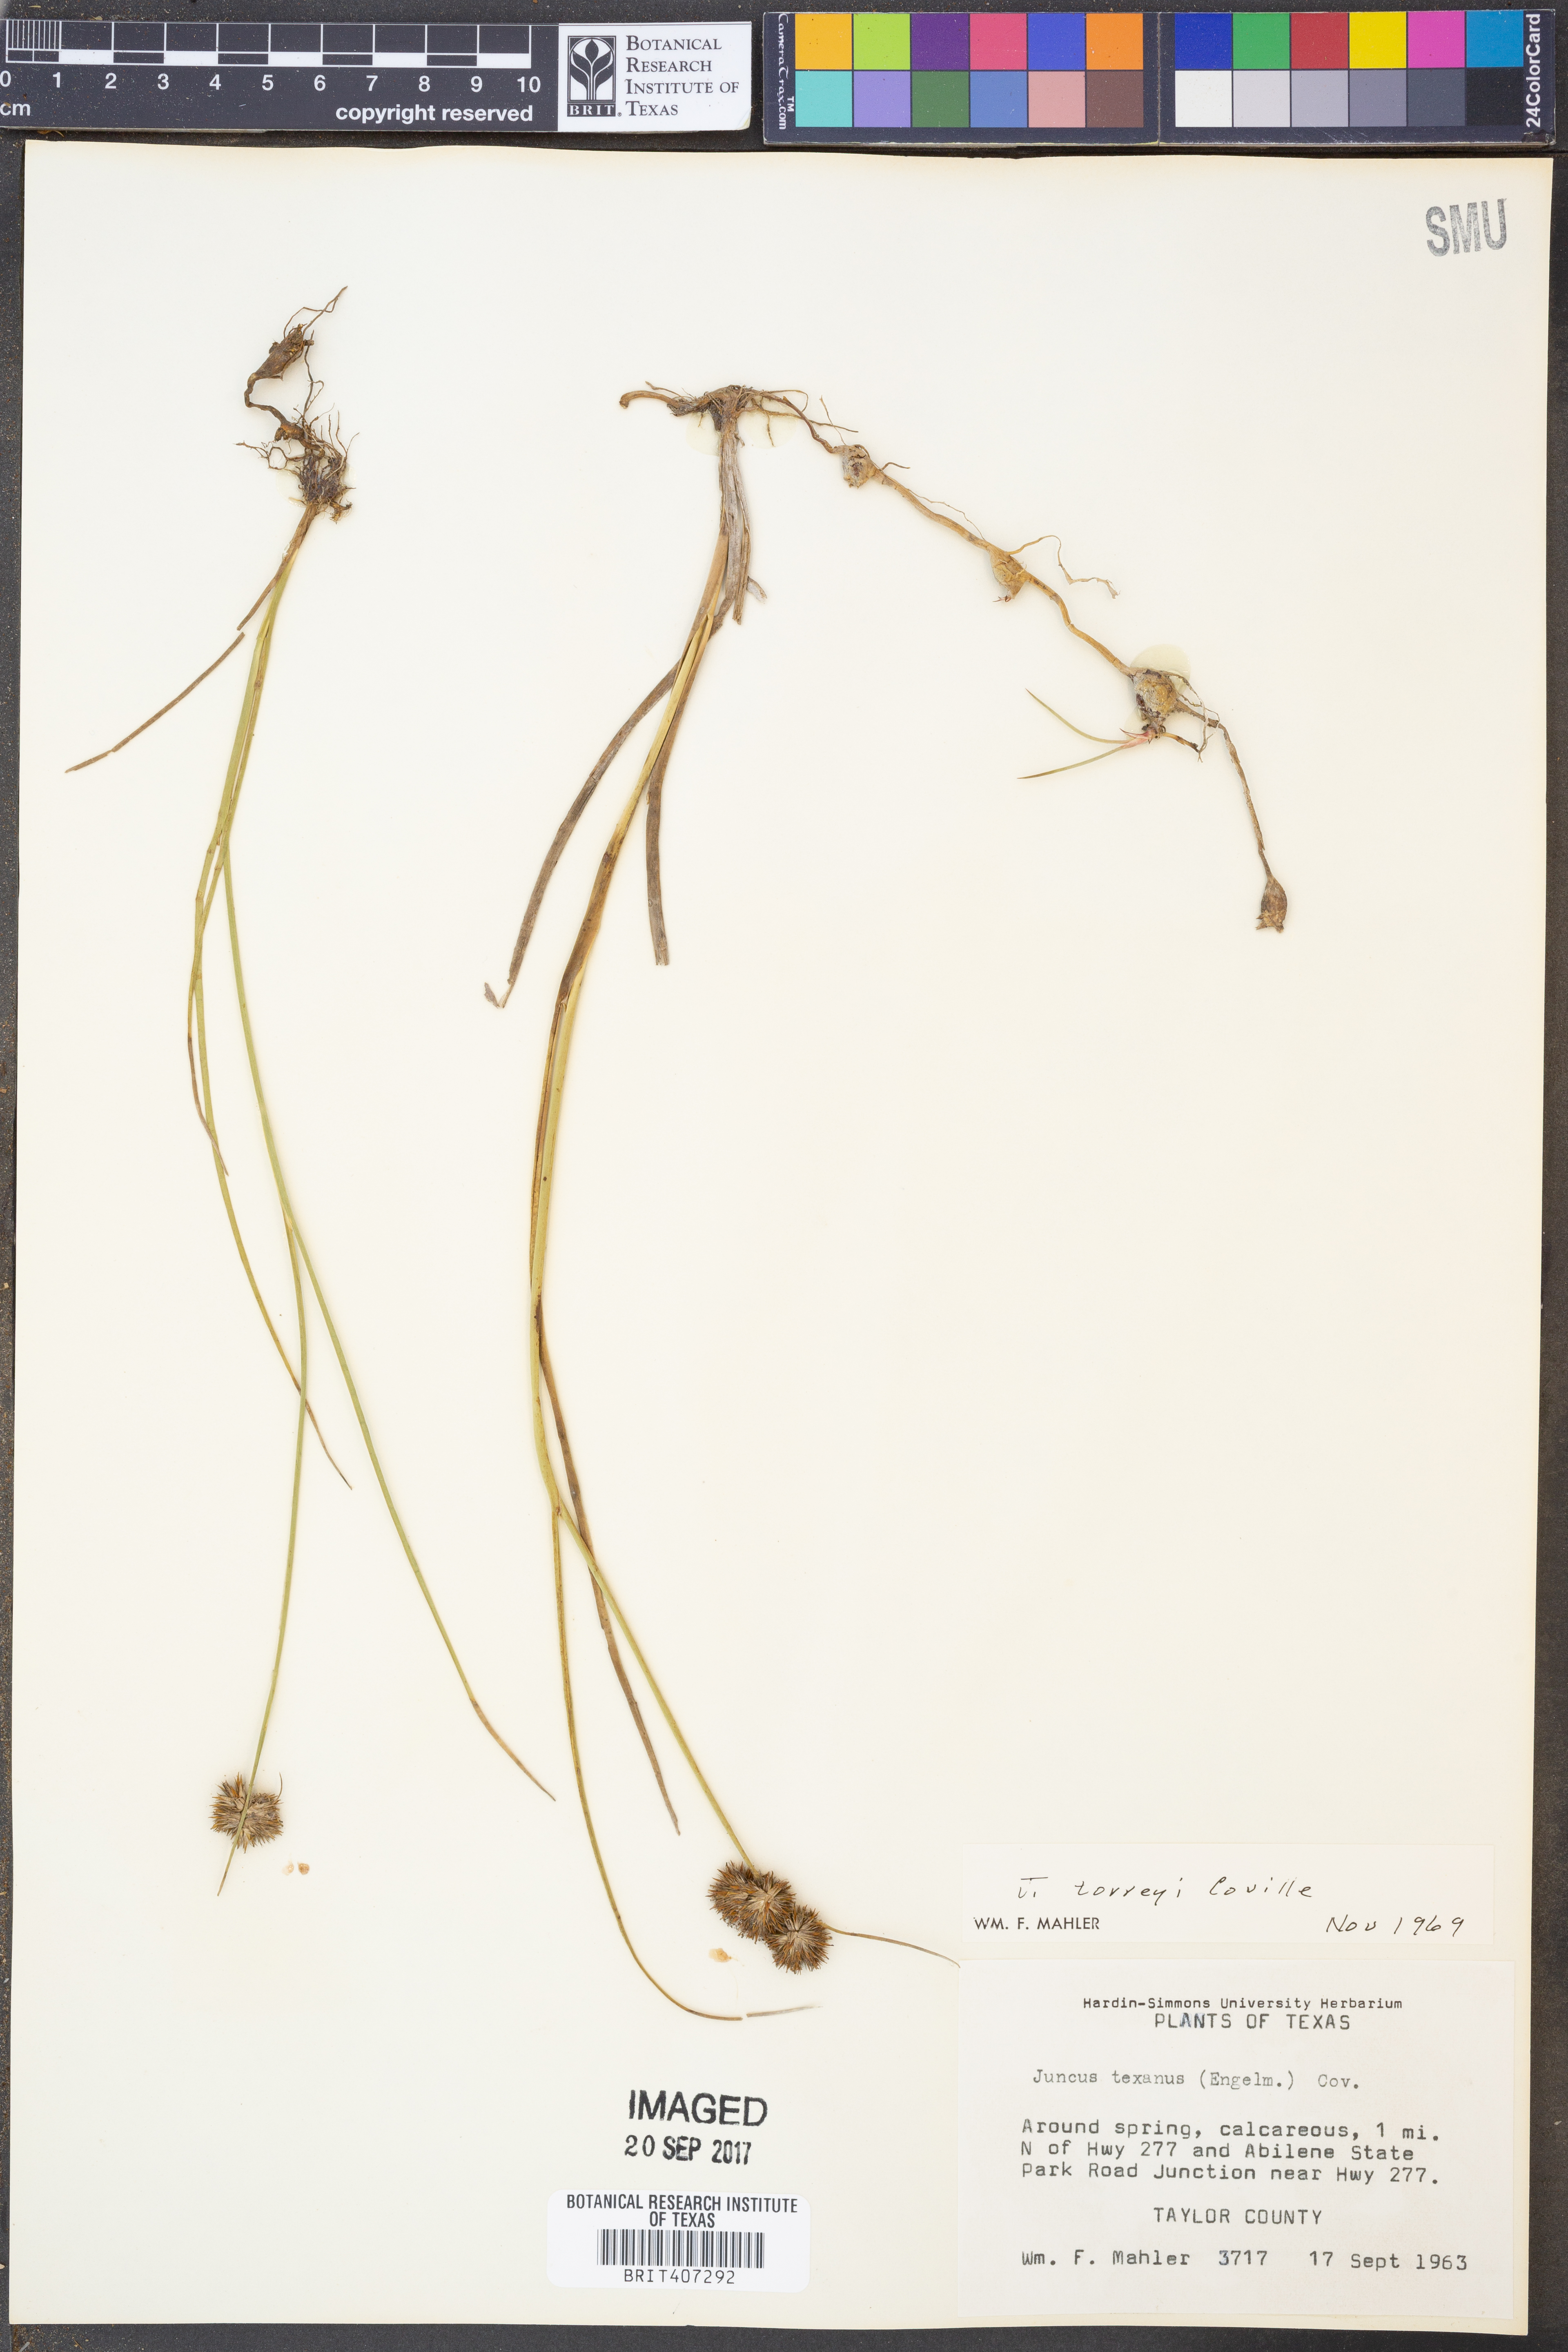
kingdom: Plantae
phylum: Tracheophyta
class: Liliopsida
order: Poales
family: Juncaceae
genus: Juncus
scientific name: Juncus torreyi
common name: Torrey's rush
